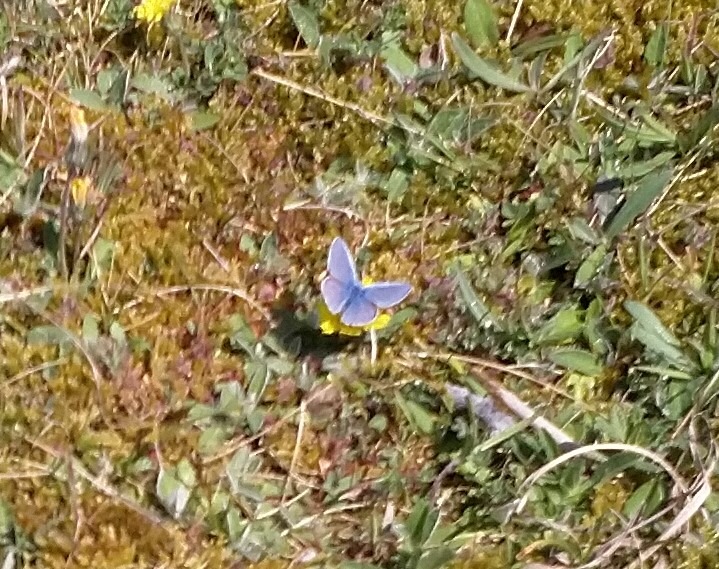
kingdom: Animalia
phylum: Arthropoda
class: Insecta
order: Lepidoptera
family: Lycaenidae
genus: Polyommatus
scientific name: Polyommatus icarus
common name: Almindelig blåfugl
